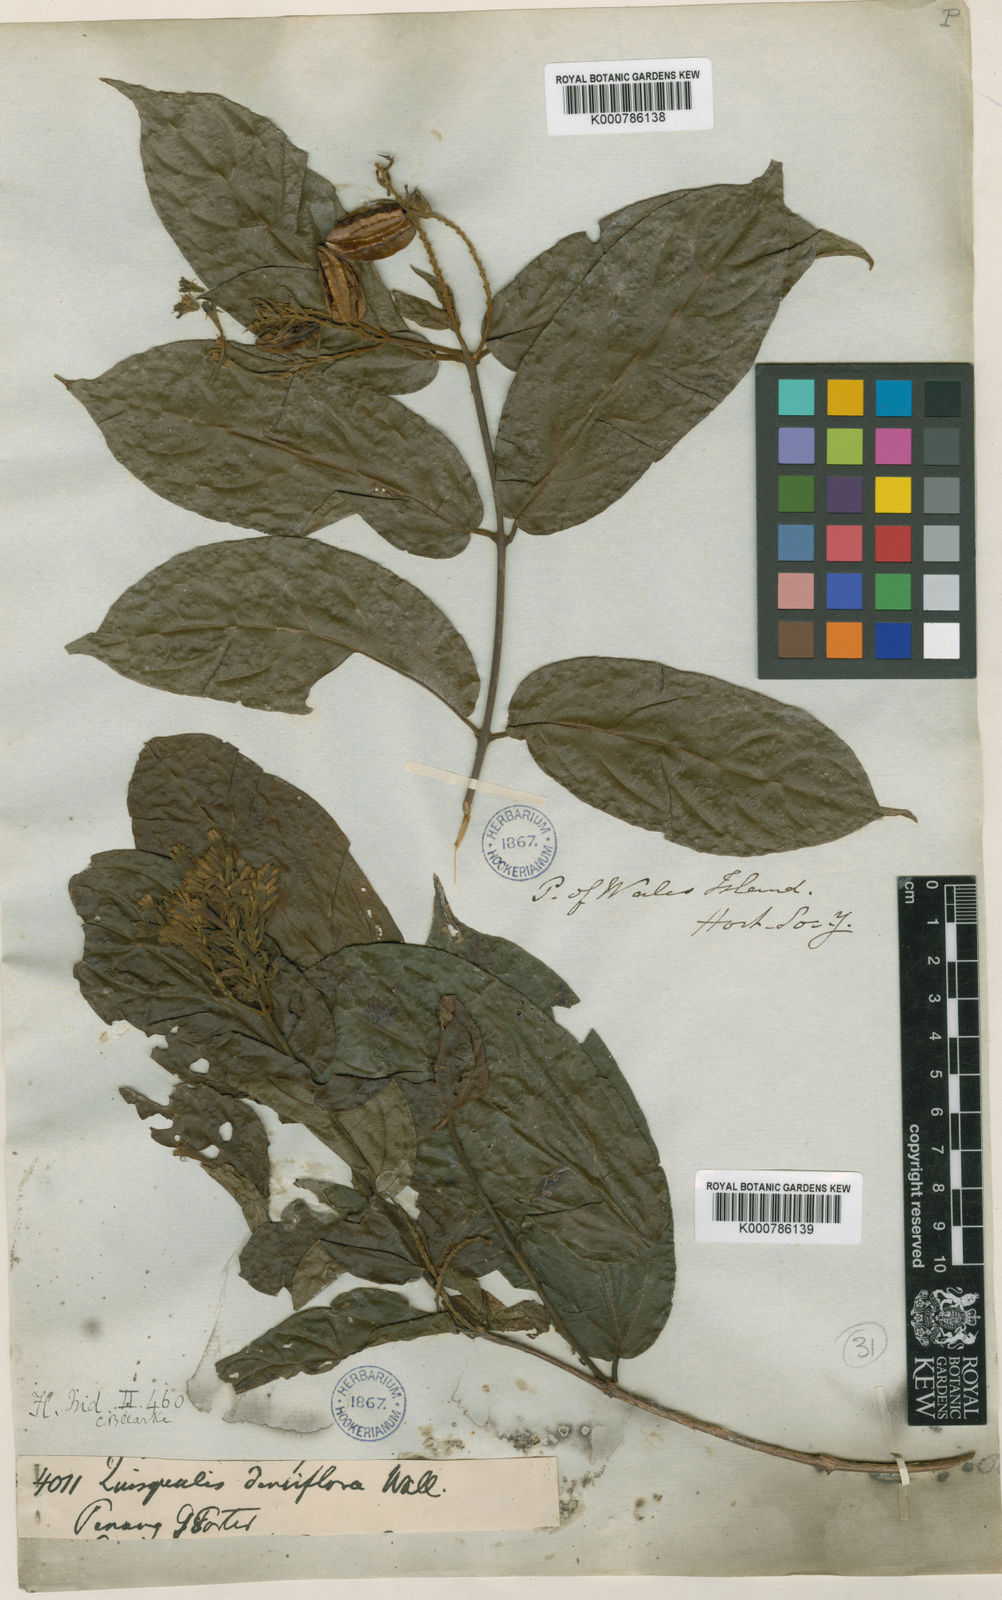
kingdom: Plantae
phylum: Tracheophyta
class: Magnoliopsida
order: Myrtales
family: Combretaceae
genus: Combretum
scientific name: Combretum densiflorum
